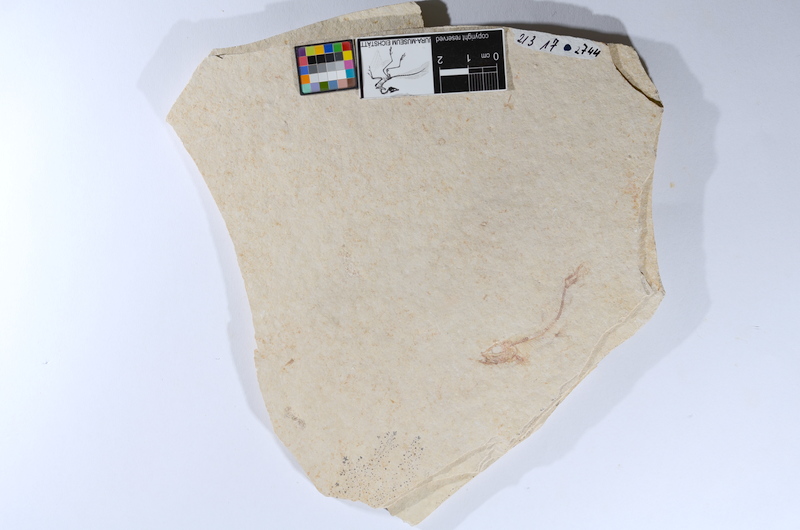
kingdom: Animalia
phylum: Chordata
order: Salmoniformes
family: Orthogonikleithridae
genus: Leptolepides
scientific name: Leptolepides sprattiformis
